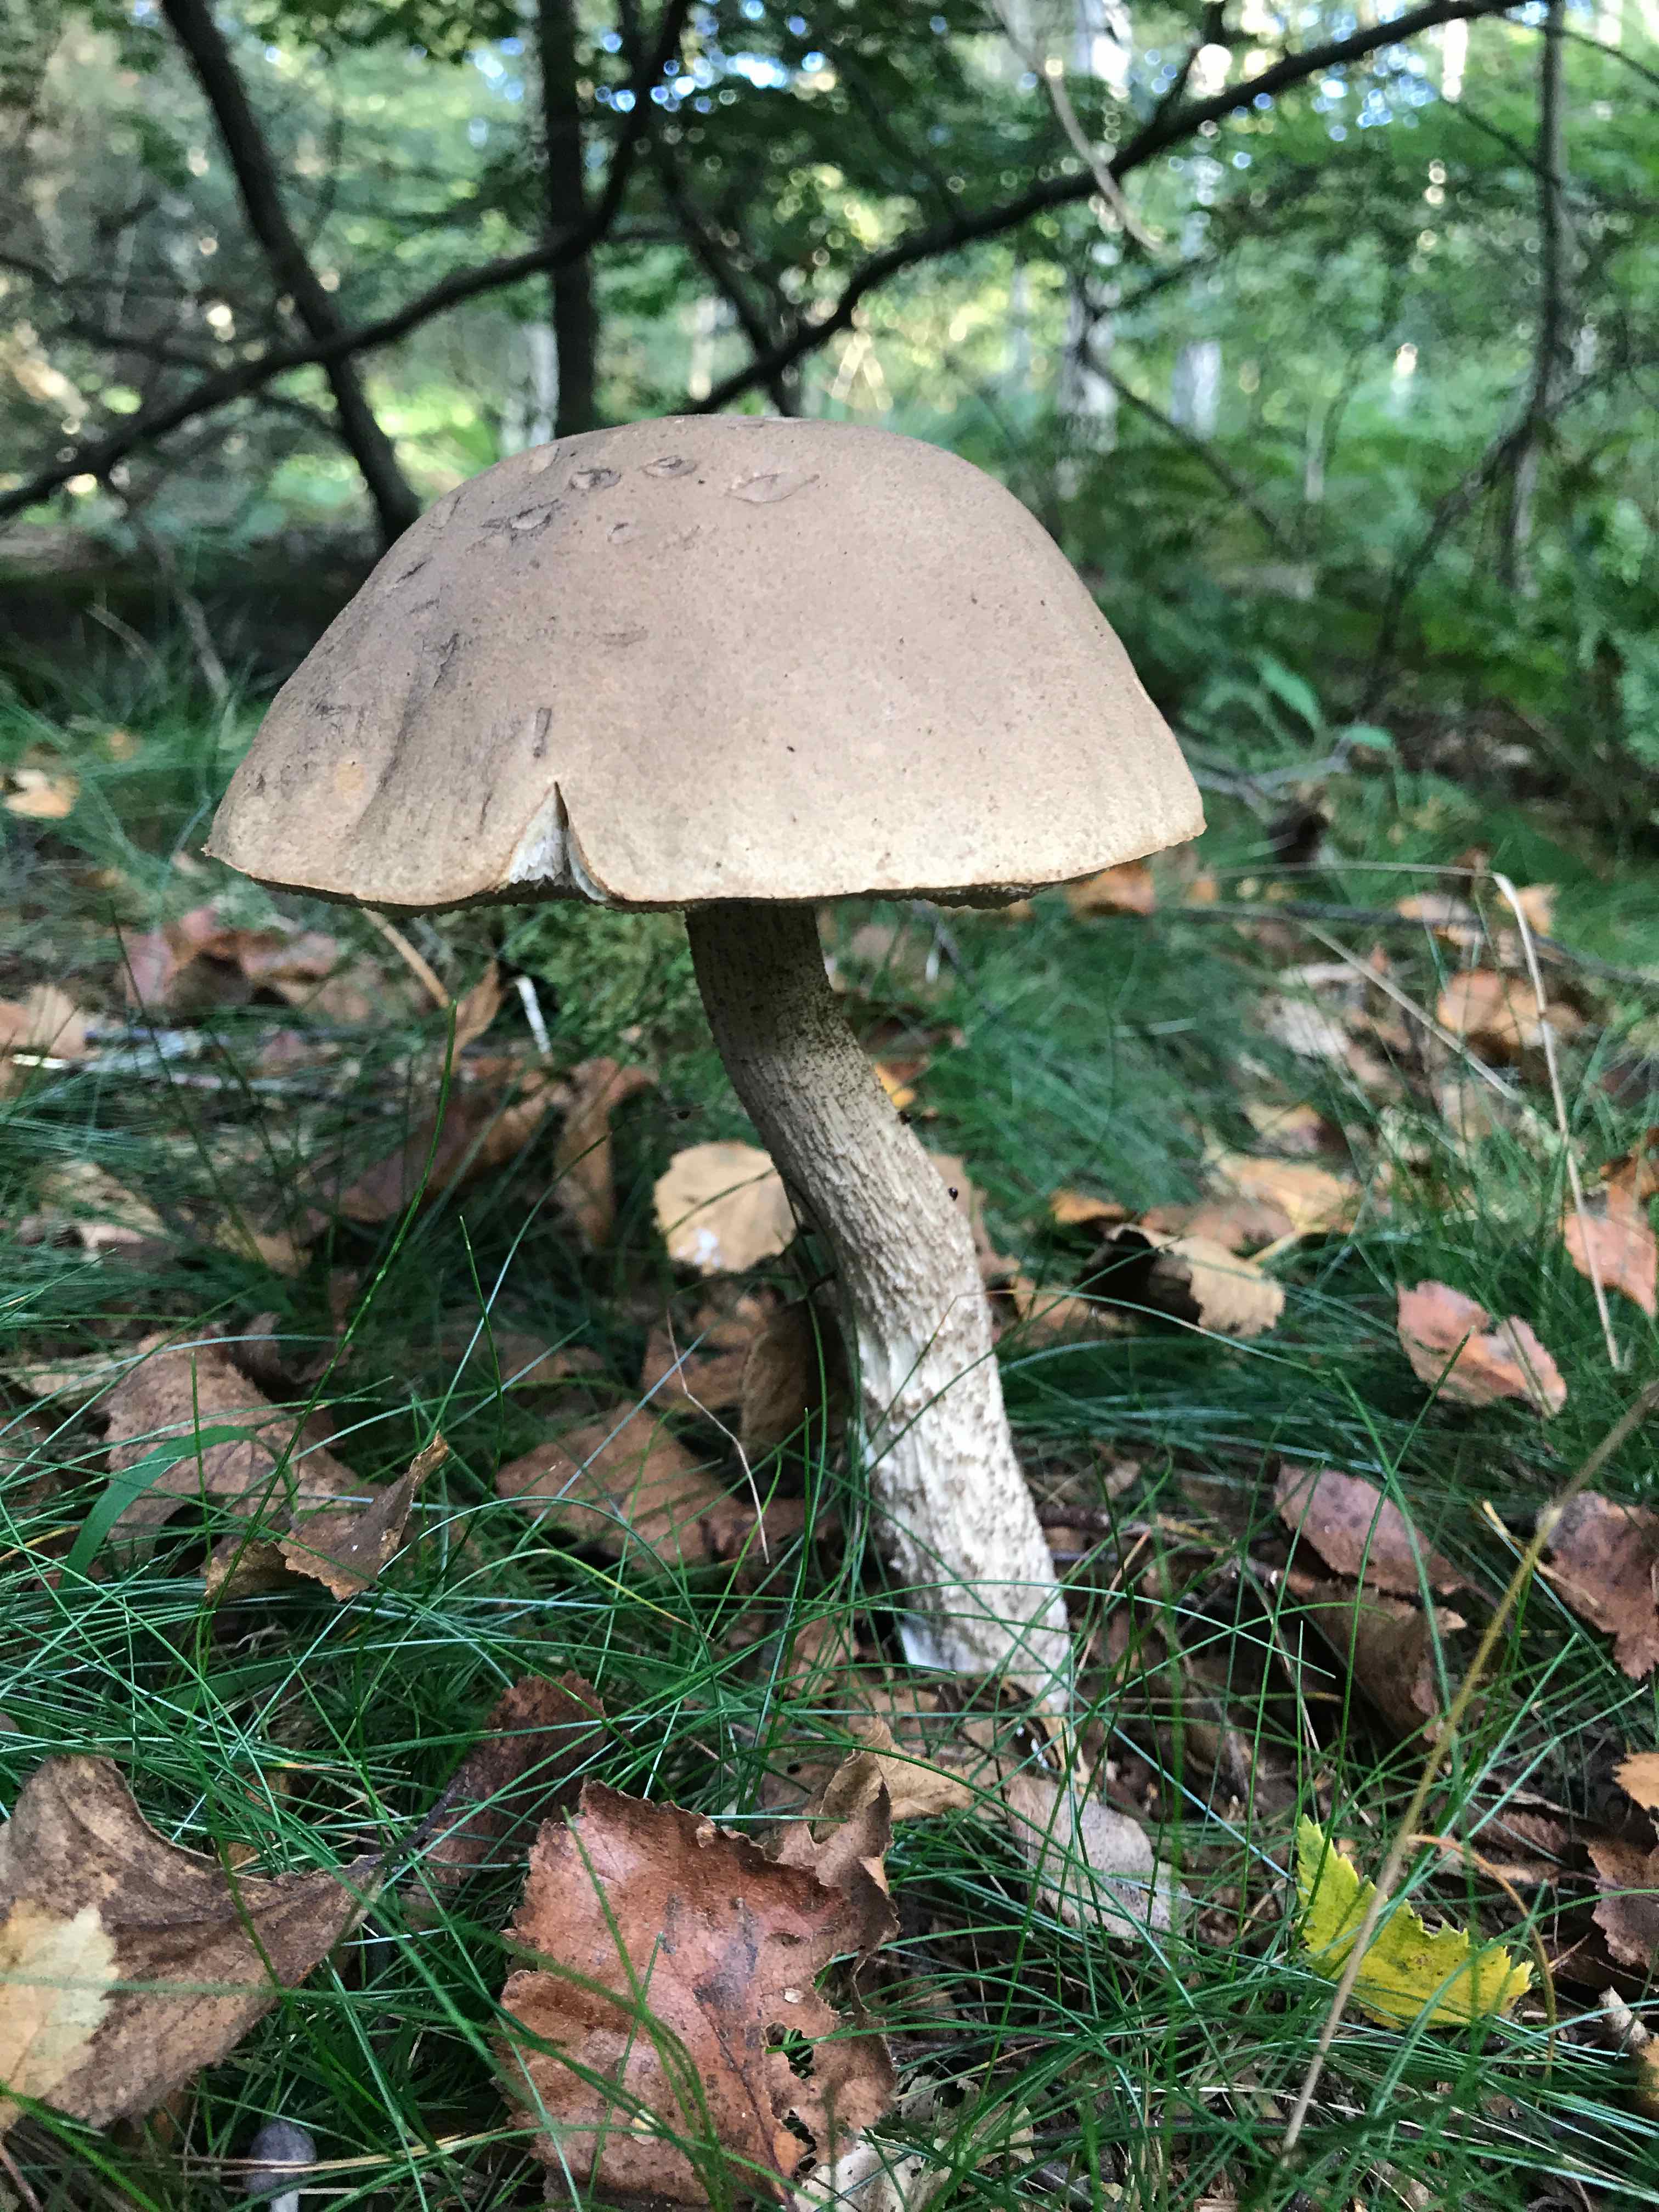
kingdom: Fungi
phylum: Basidiomycota
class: Agaricomycetes
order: Boletales
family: Boletaceae
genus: Leccinum
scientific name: Leccinum
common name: skælrørhat
